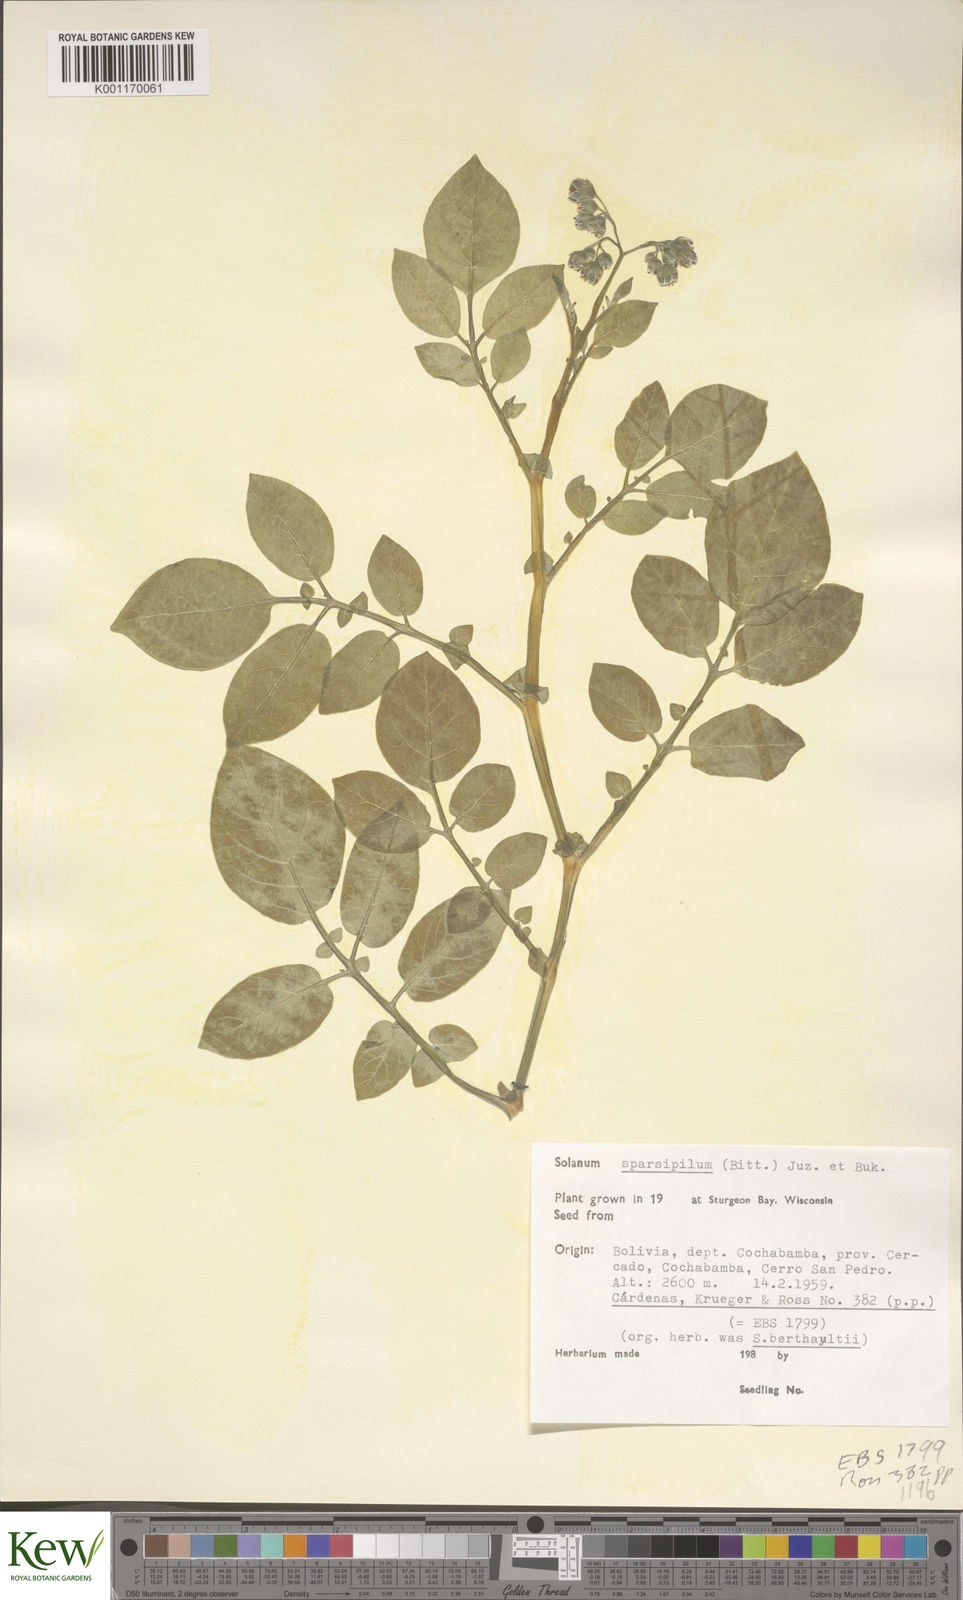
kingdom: Plantae
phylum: Tracheophyta
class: Magnoliopsida
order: Solanales
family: Solanaceae
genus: Solanum
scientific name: Solanum brevicaule
